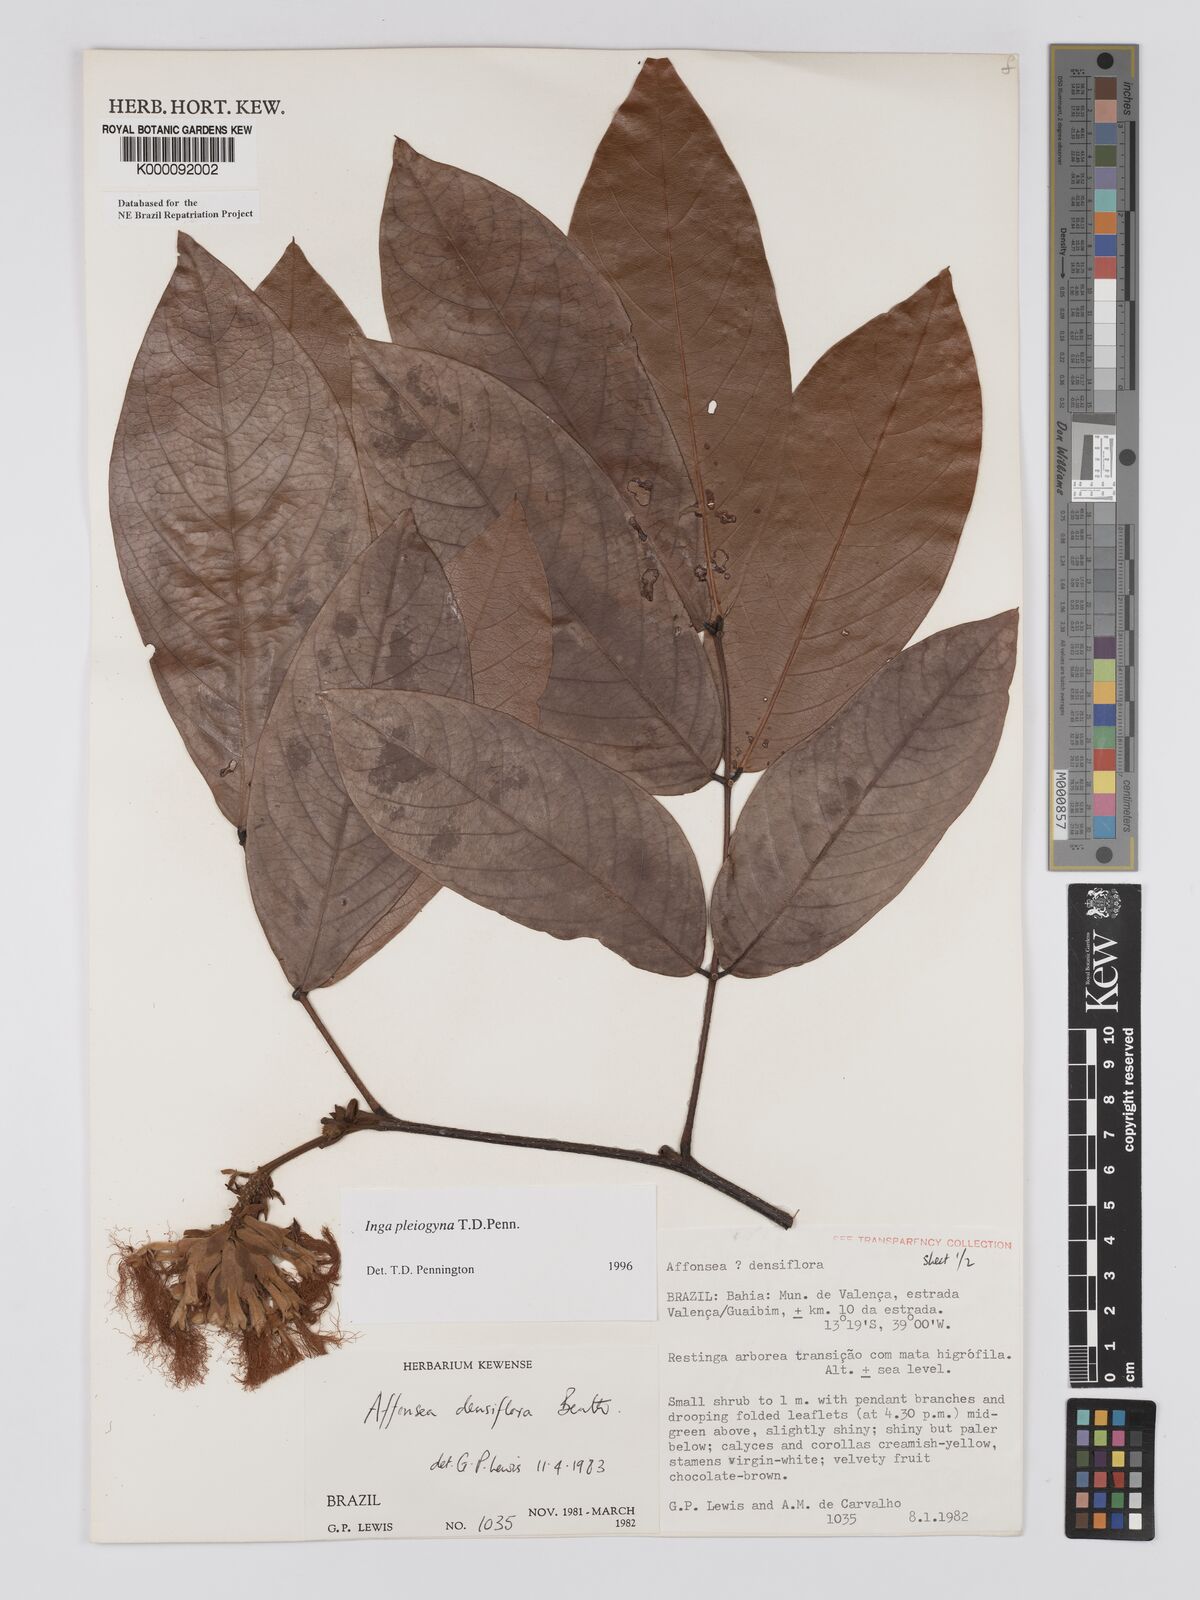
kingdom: Plantae
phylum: Tracheophyta
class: Magnoliopsida
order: Fabales
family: Fabaceae
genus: Inga
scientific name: Inga pleiogyna
